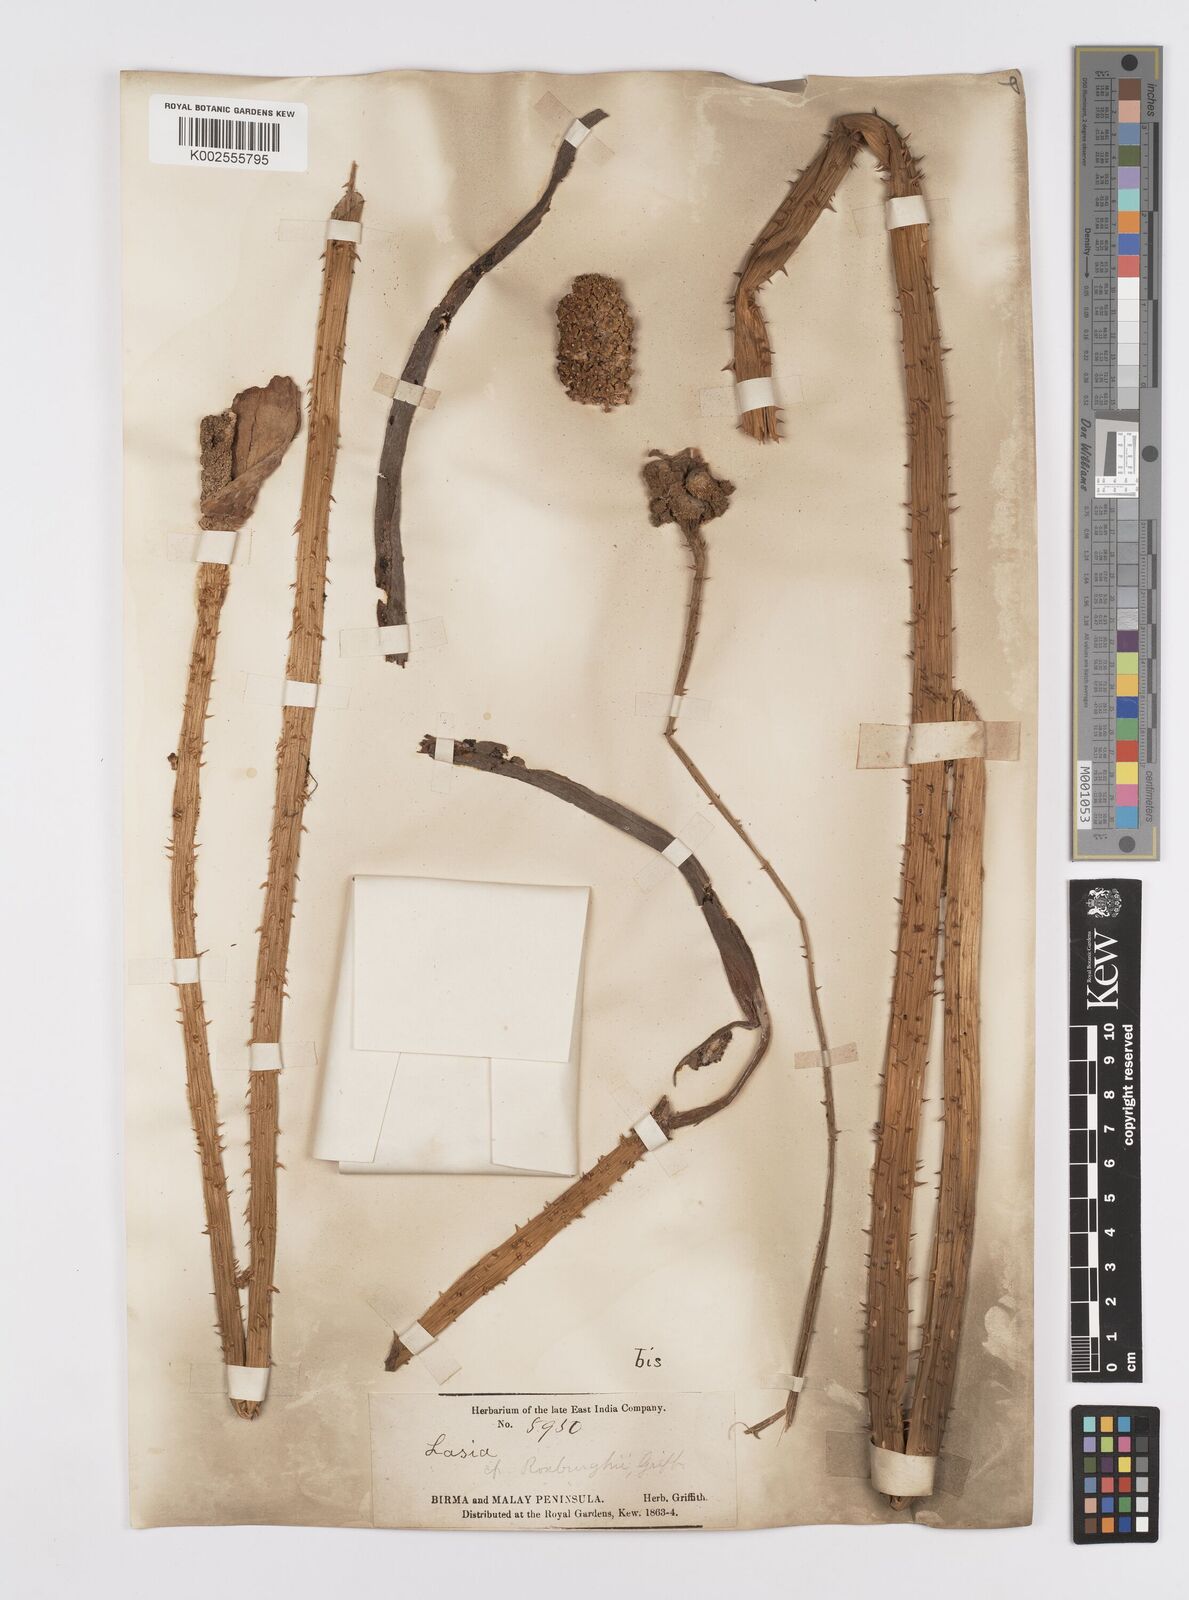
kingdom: Plantae
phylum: Tracheophyta
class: Liliopsida
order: Alismatales
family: Araceae
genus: Lasia
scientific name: Lasia spinosa
